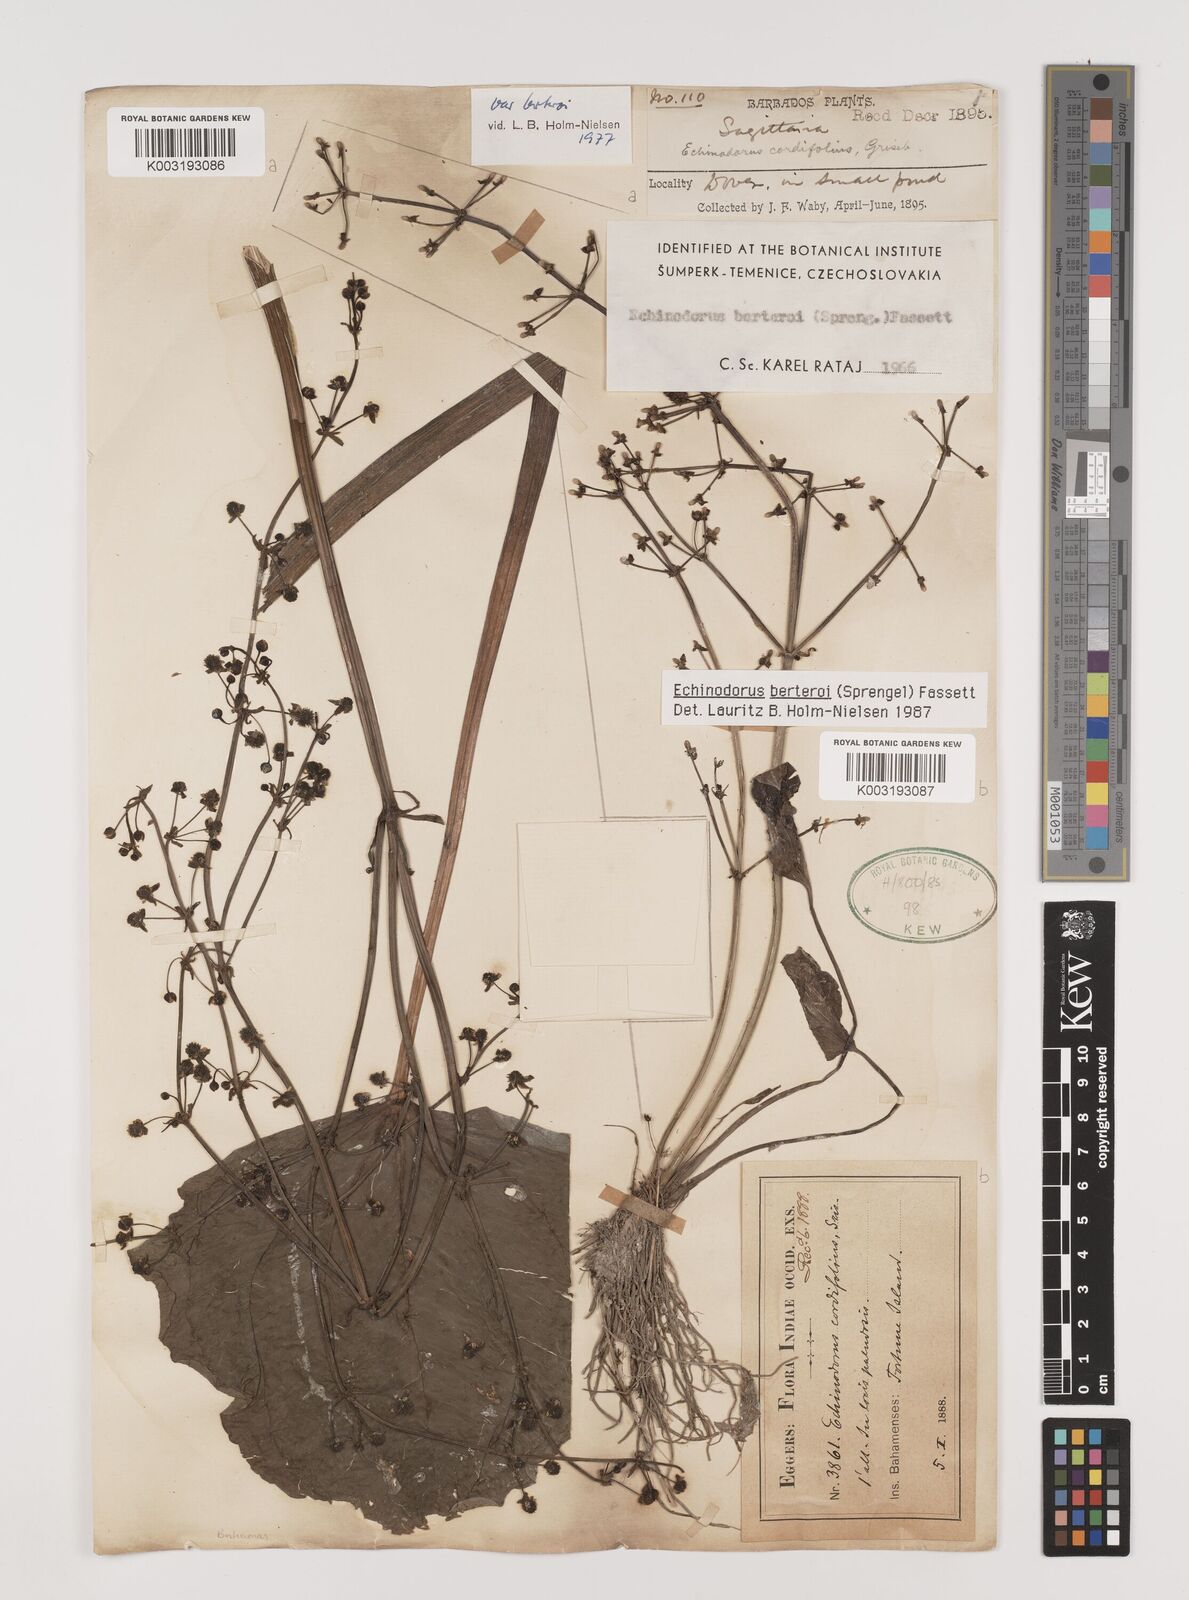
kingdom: Plantae
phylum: Tracheophyta
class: Liliopsida
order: Alismatales
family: Alismataceae
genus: Echinodorus
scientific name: Echinodorus berteroi
